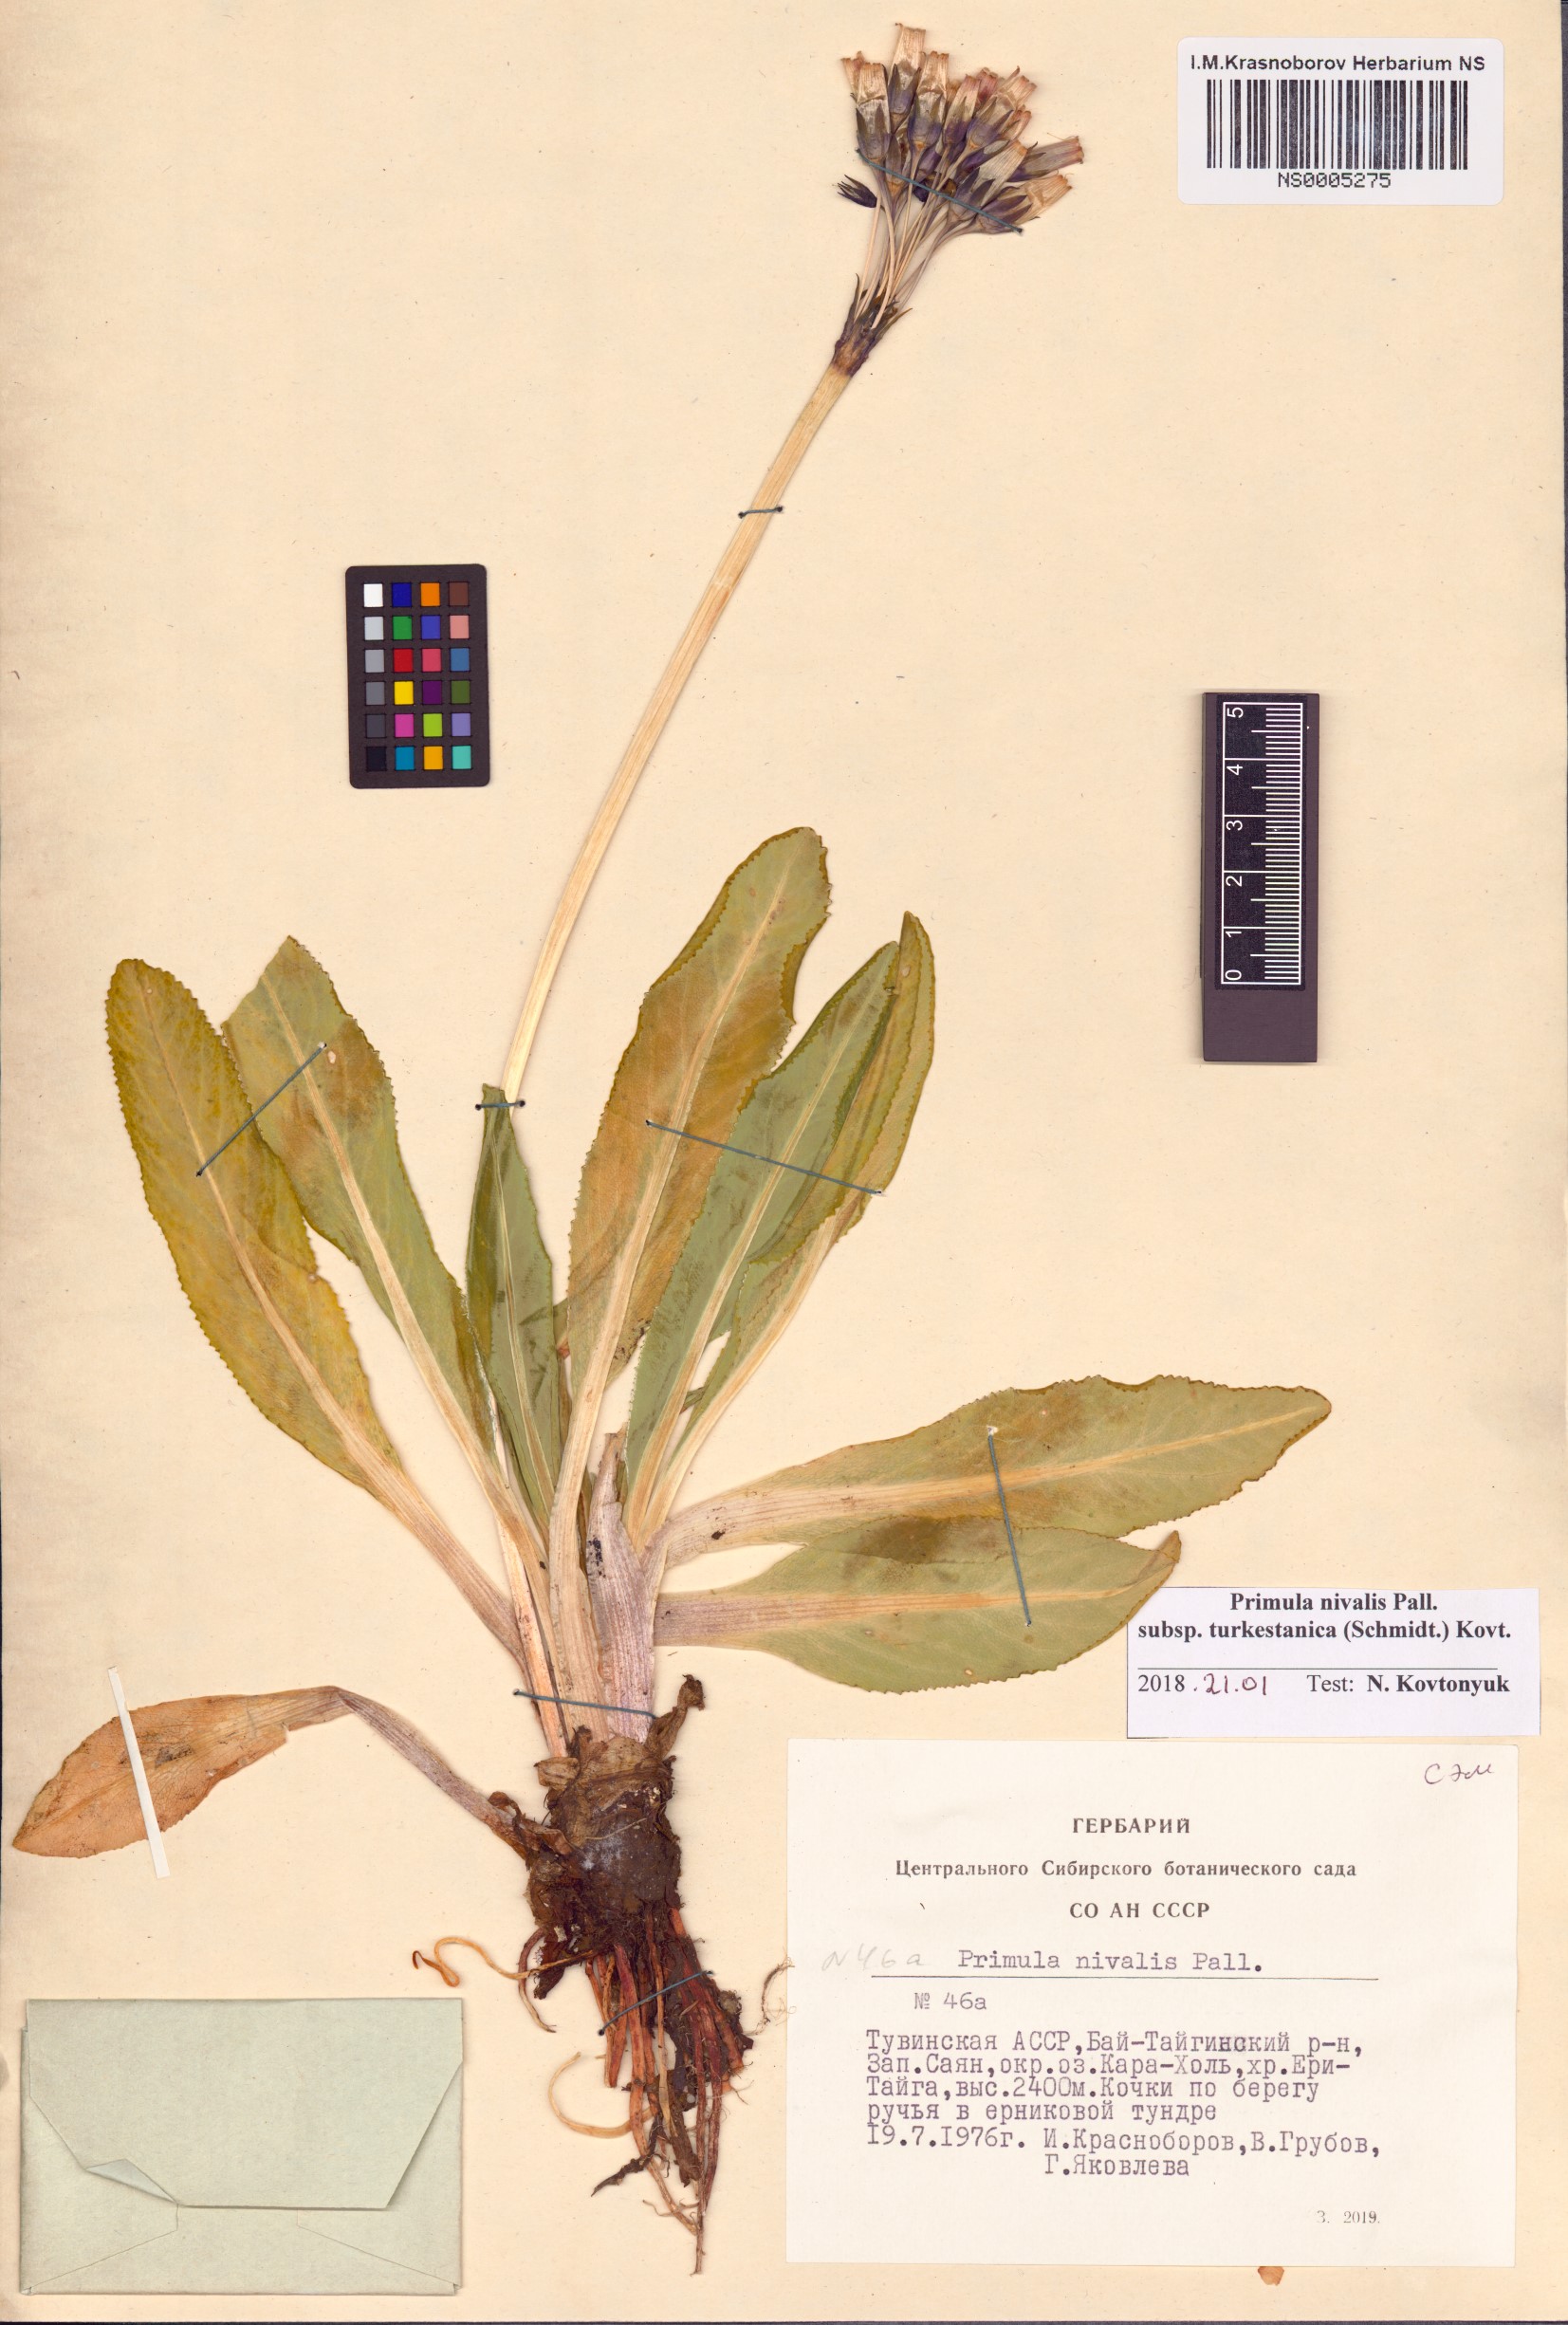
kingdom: Plantae
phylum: Tracheophyta
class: Magnoliopsida
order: Ericales
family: Primulaceae
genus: Primula
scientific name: Primula nivalis
